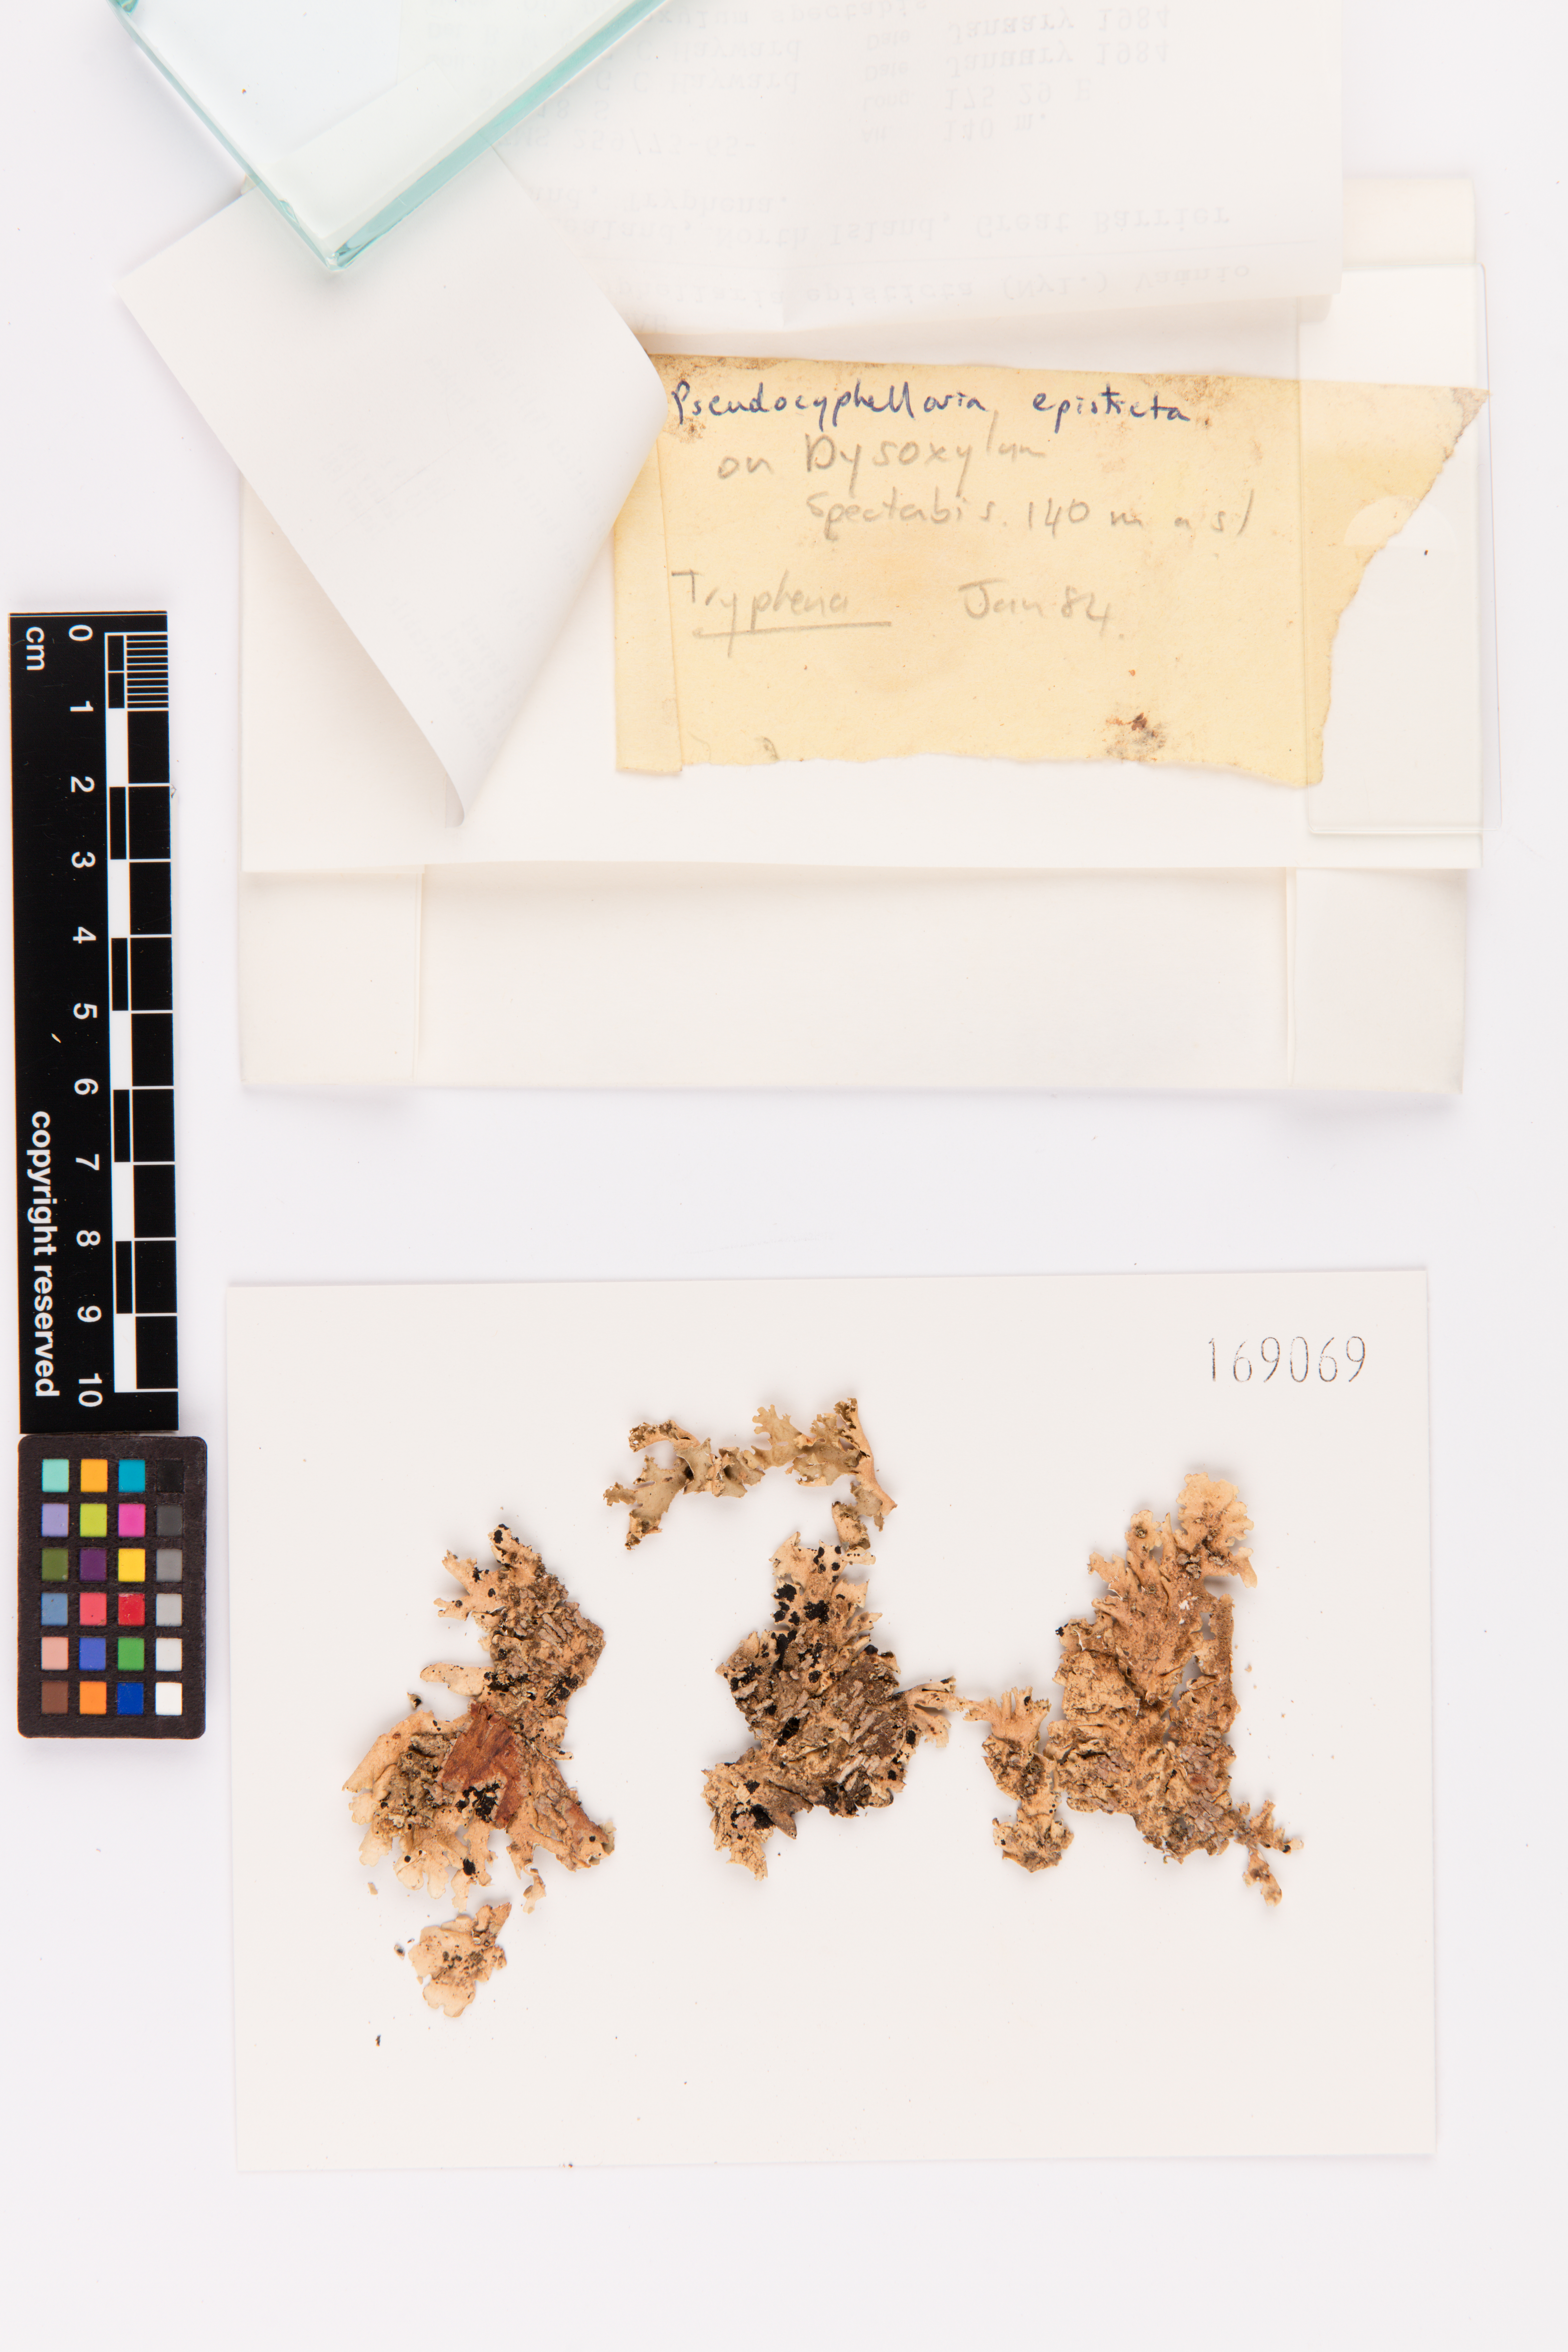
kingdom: Fungi
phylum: Ascomycota
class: Lecanoromycetes
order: Peltigerales
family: Lobariaceae
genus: Pseudocyphellaria
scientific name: Pseudocyphellaria episticta
